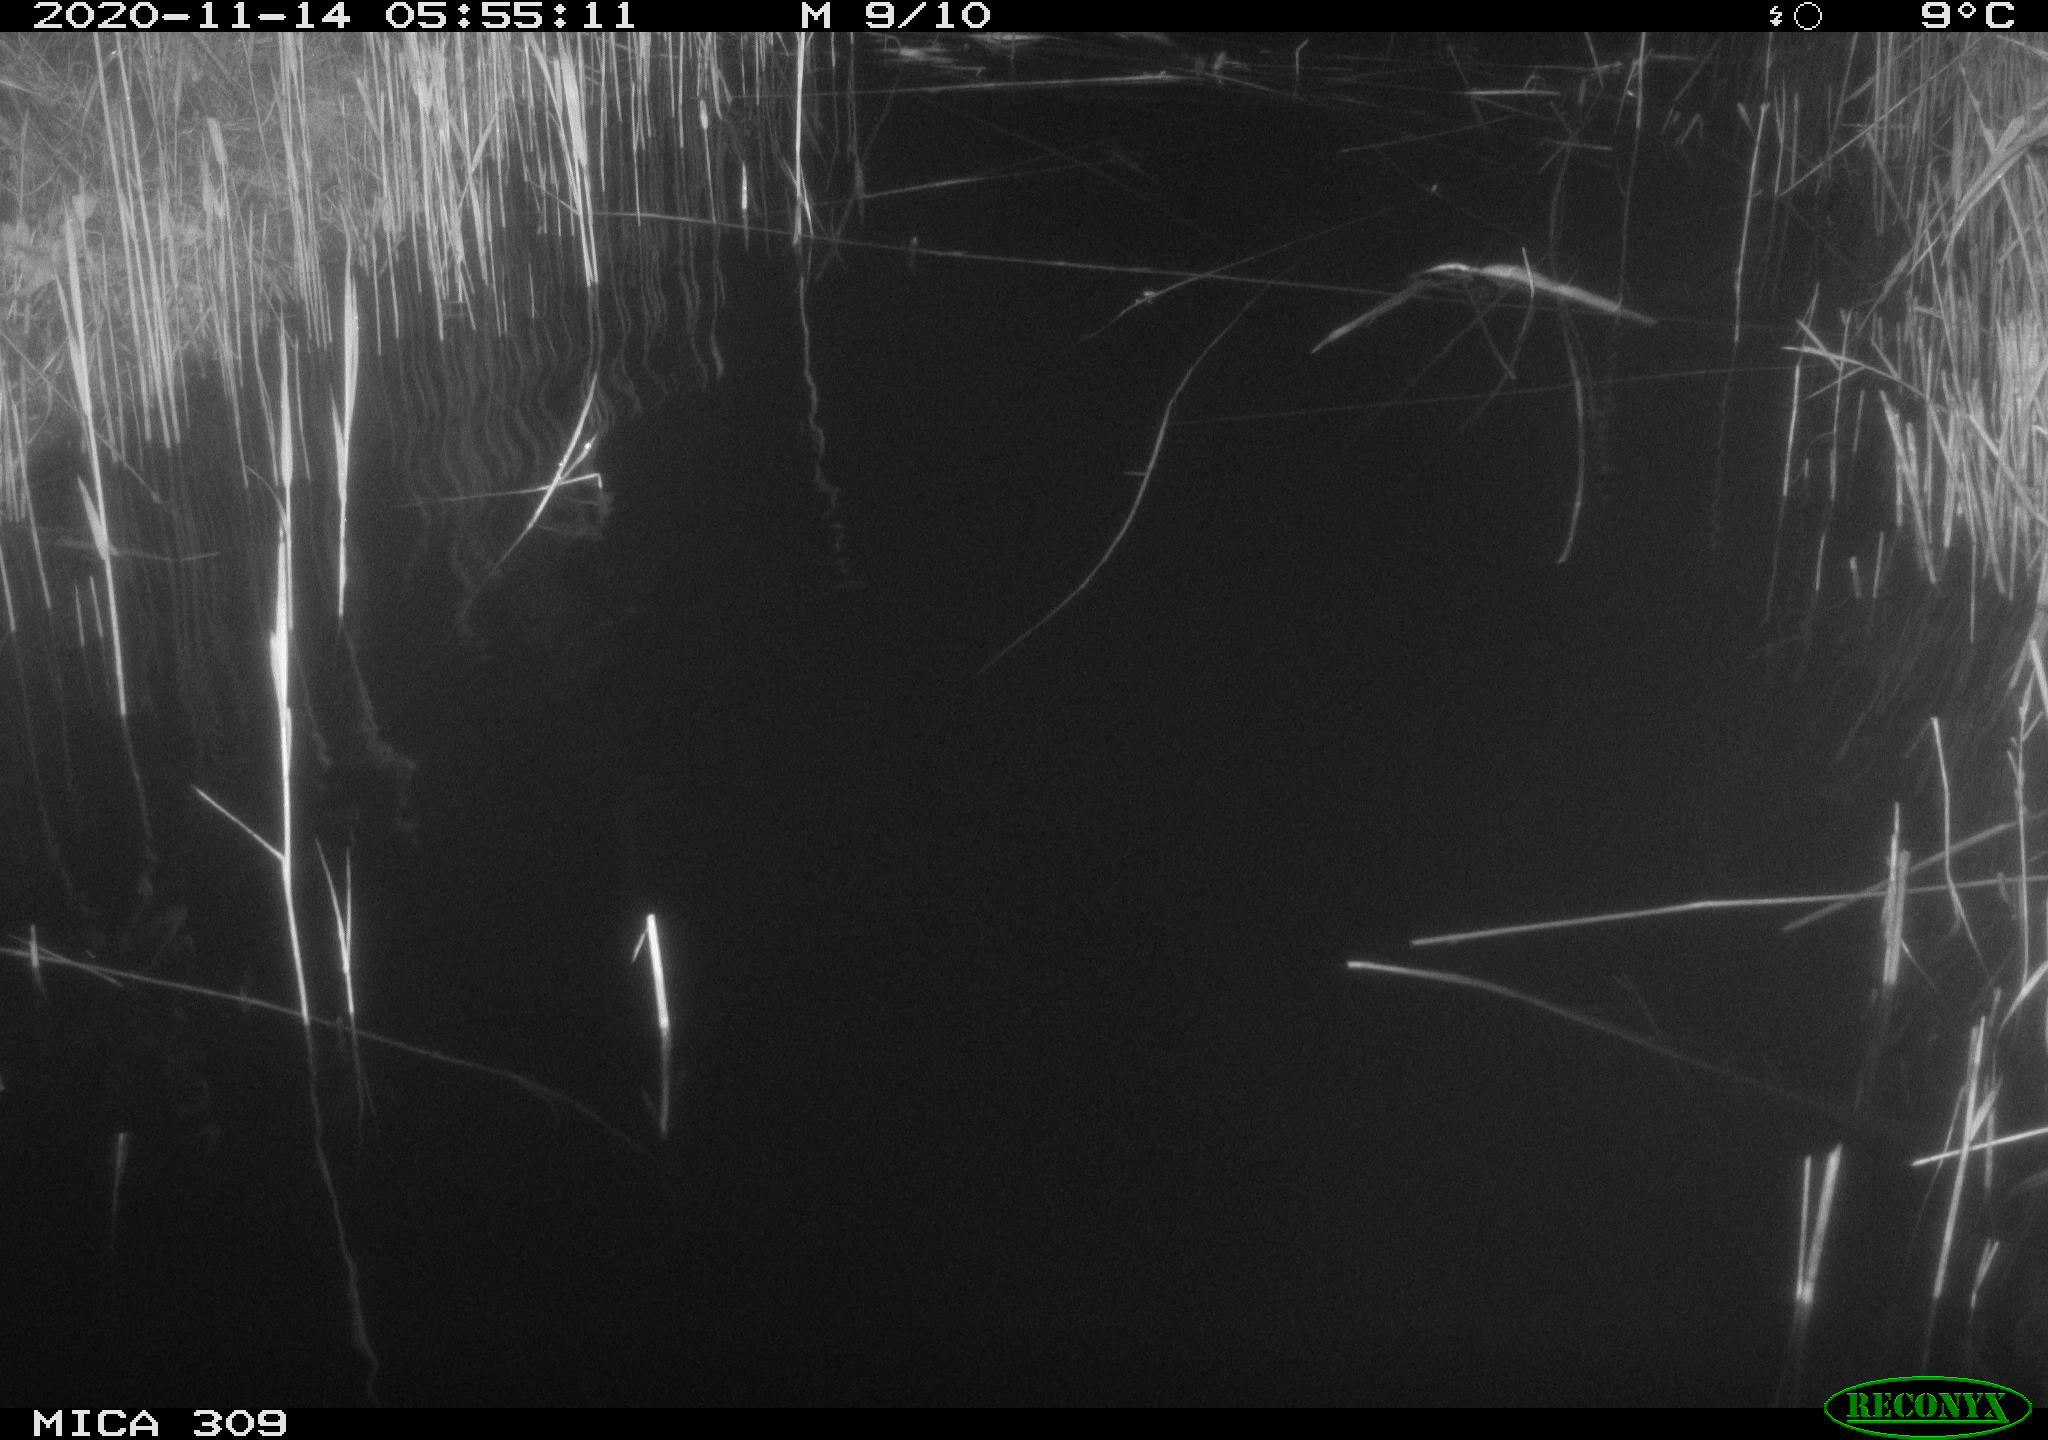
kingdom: Animalia
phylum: Chordata
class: Mammalia
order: Rodentia
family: Muridae
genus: Rattus
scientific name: Rattus norvegicus
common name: Brown rat
